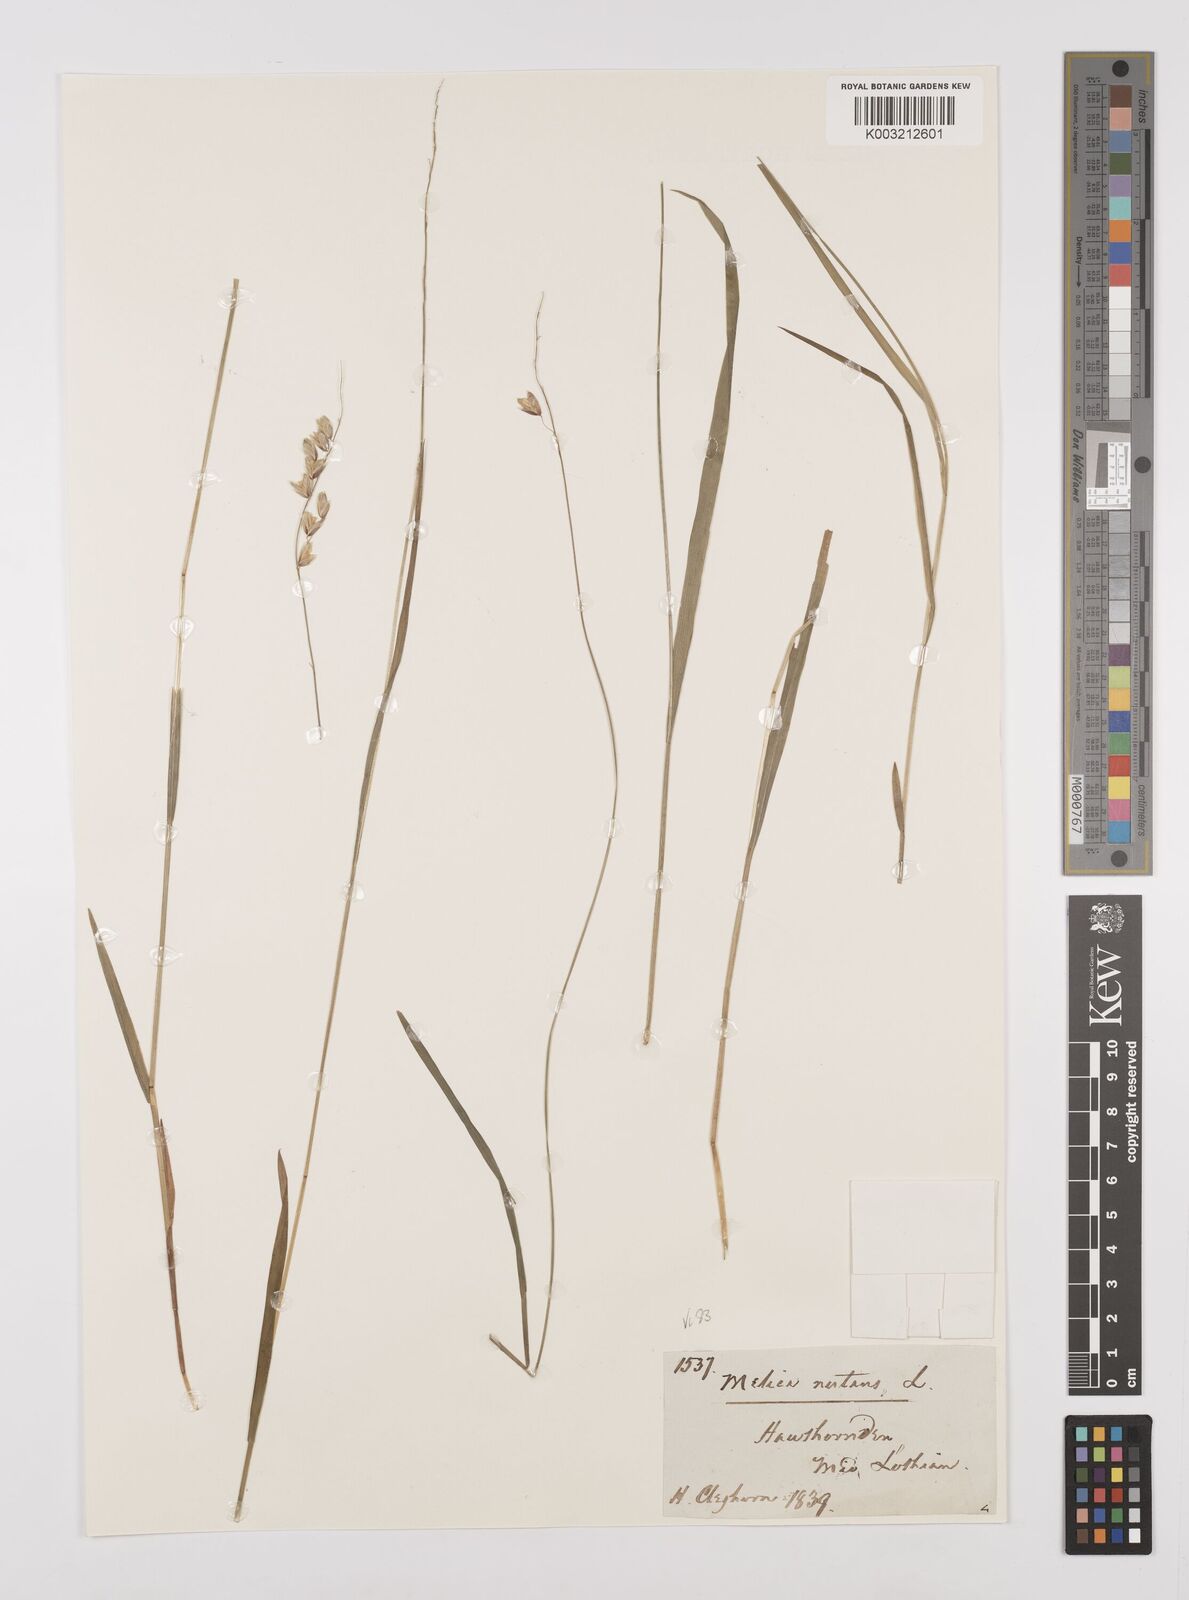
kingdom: Plantae
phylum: Tracheophyta
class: Liliopsida
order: Poales
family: Poaceae
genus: Melica
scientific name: Melica
